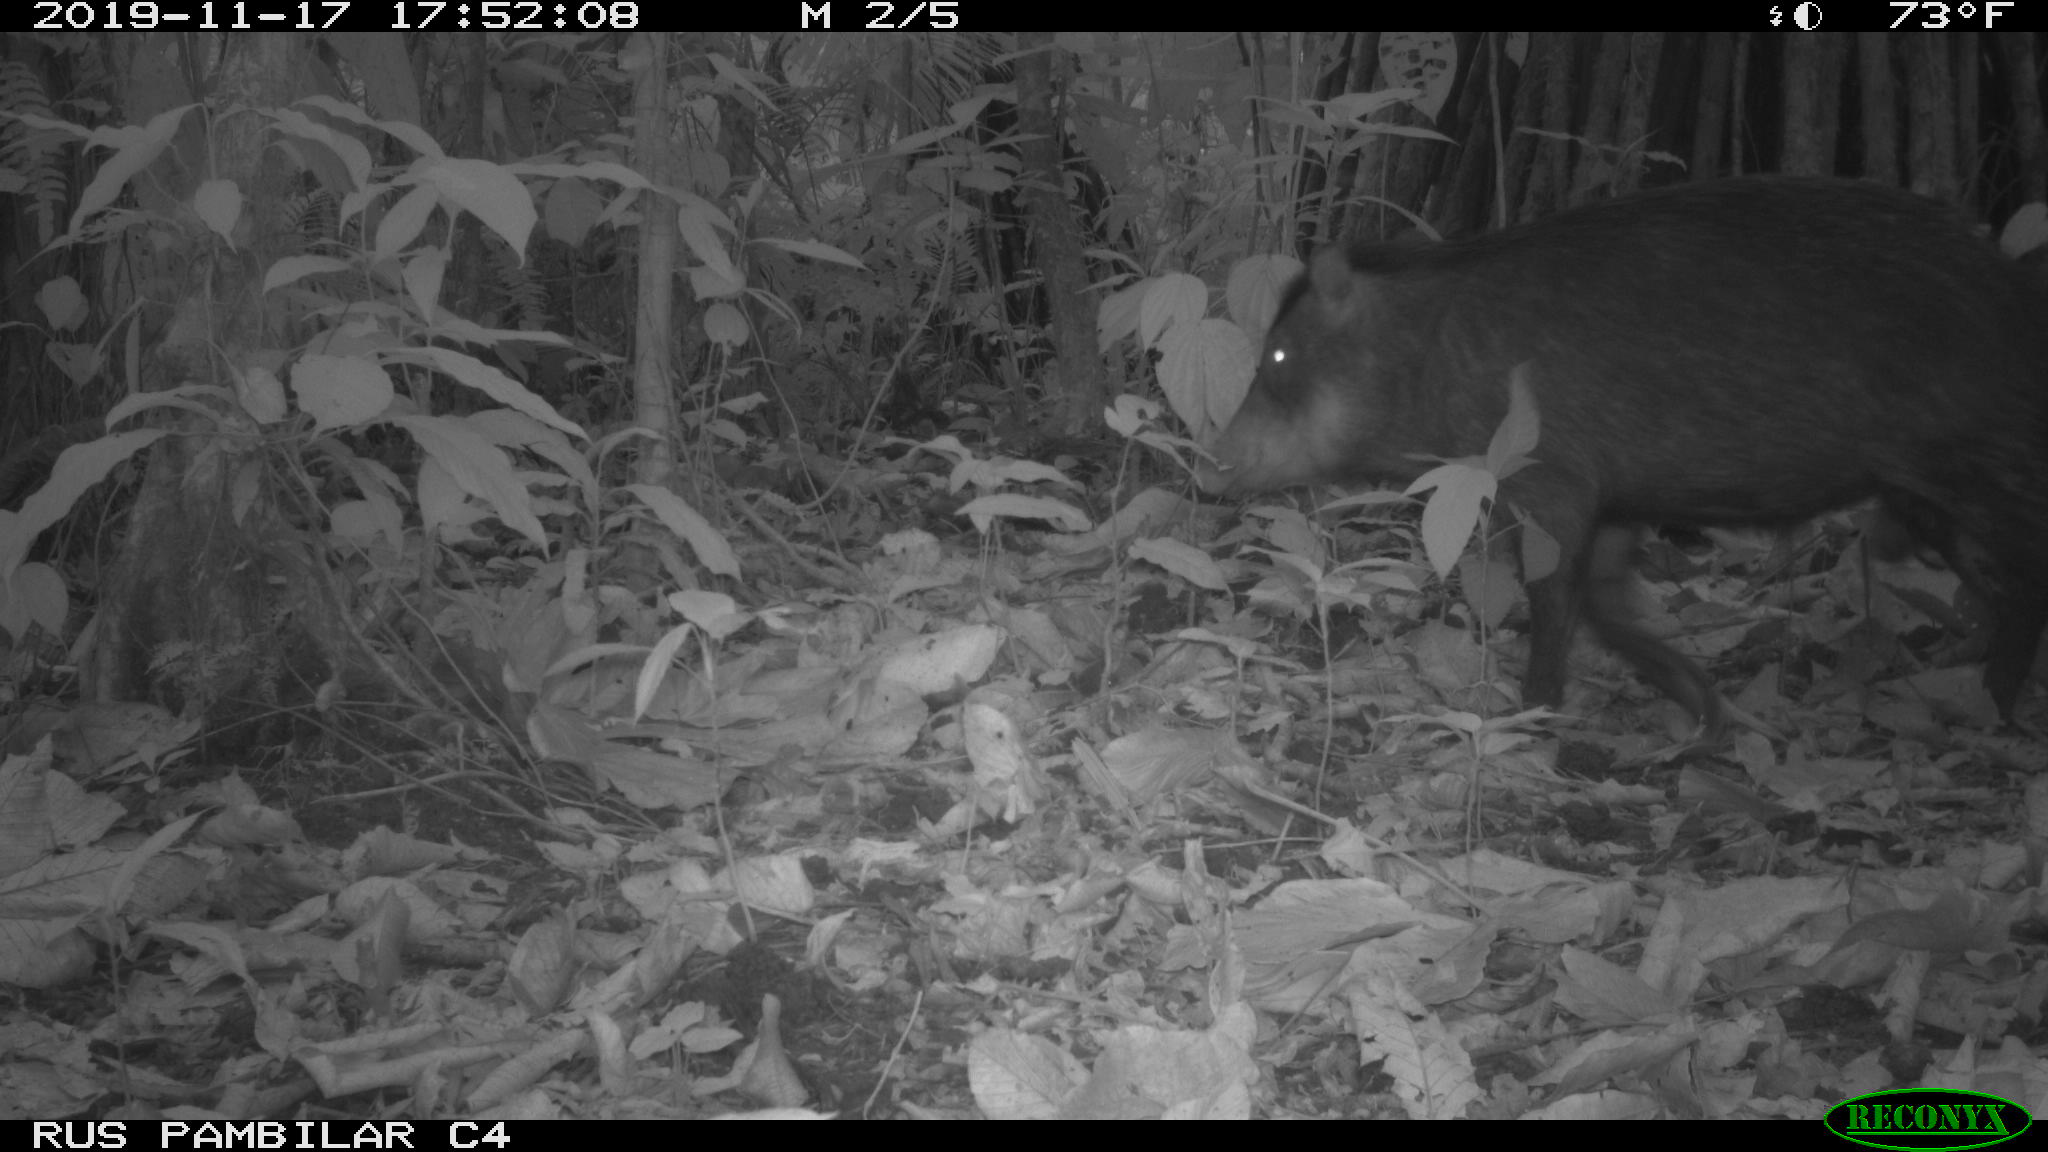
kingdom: Animalia
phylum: Chordata
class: Mammalia
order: Artiodactyla
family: Tayassuidae
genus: Tayassu
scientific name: Tayassu pecari
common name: White-lipped peccary
